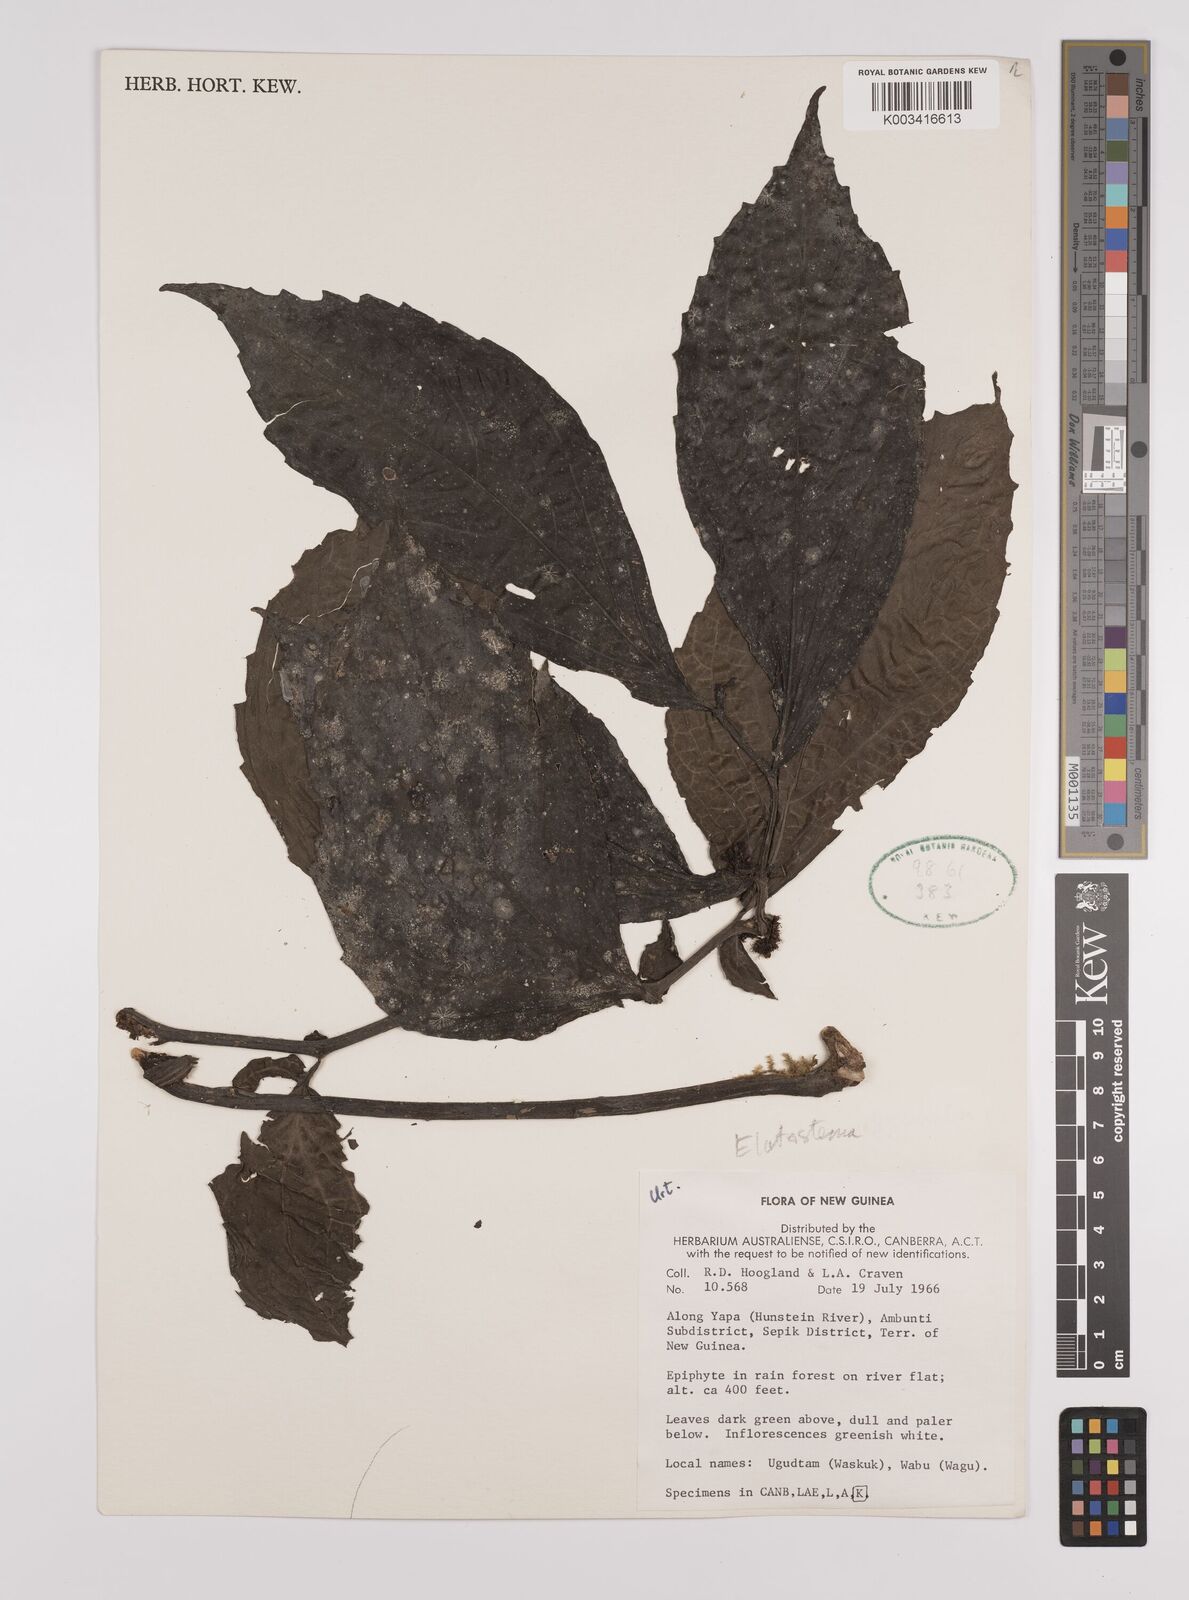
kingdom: Plantae
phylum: Tracheophyta
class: Magnoliopsida
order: Rosales
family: Urticaceae
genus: Elatostema
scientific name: Elatostema
